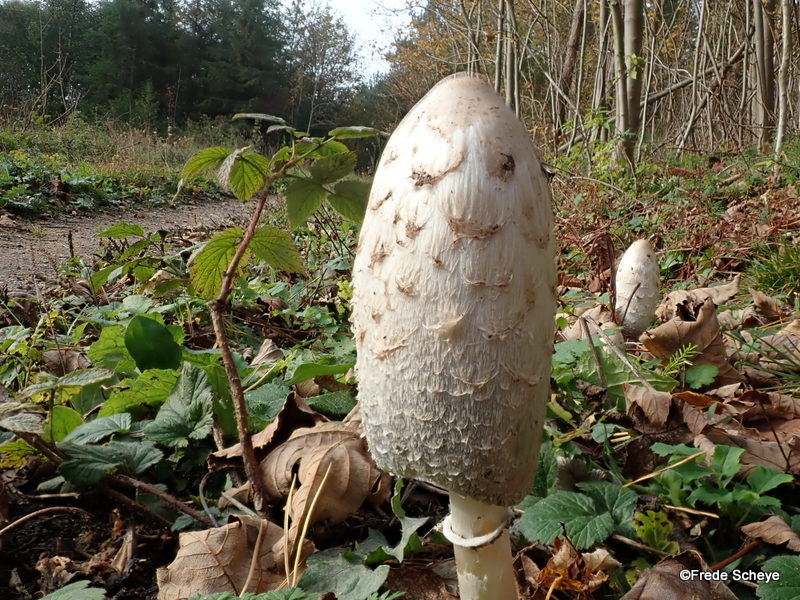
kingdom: Fungi
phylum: Basidiomycota
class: Agaricomycetes
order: Agaricales
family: Agaricaceae
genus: Coprinus
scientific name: Coprinus comatus
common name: stor parykhat
